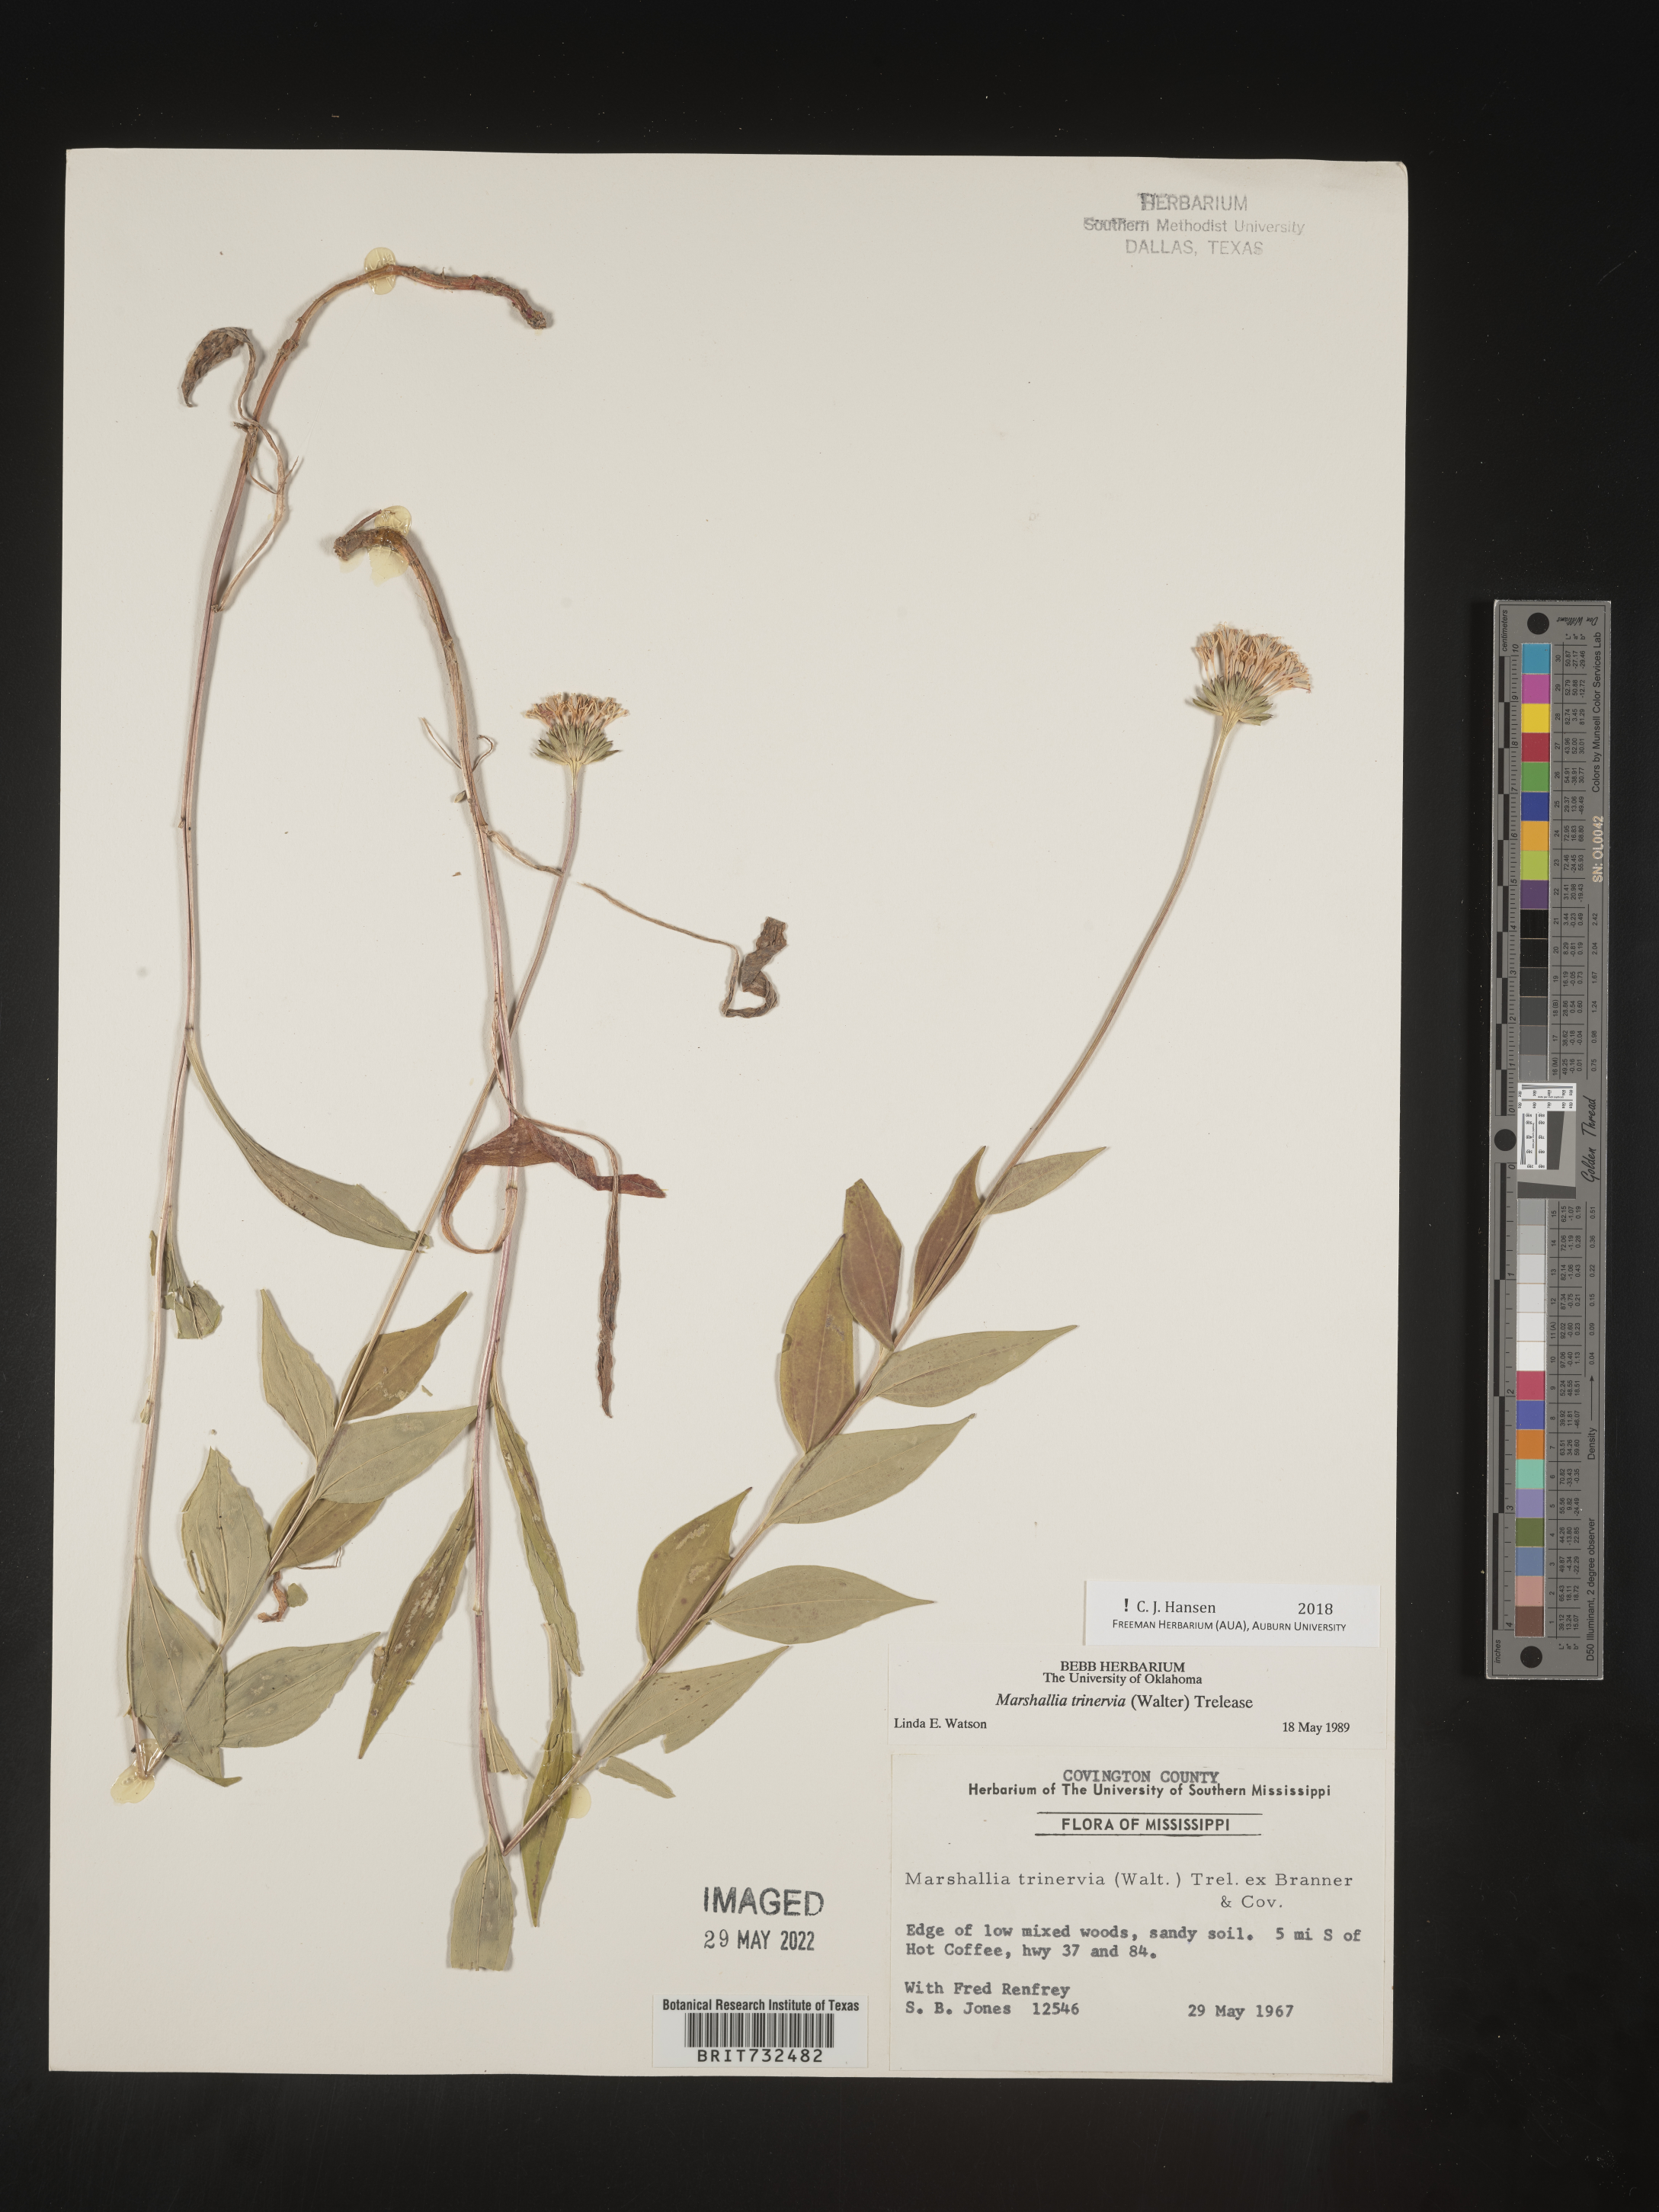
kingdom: Plantae
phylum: Tracheophyta
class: Magnoliopsida
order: Asterales
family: Asteraceae
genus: Marshallia
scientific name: Marshallia trinervia
